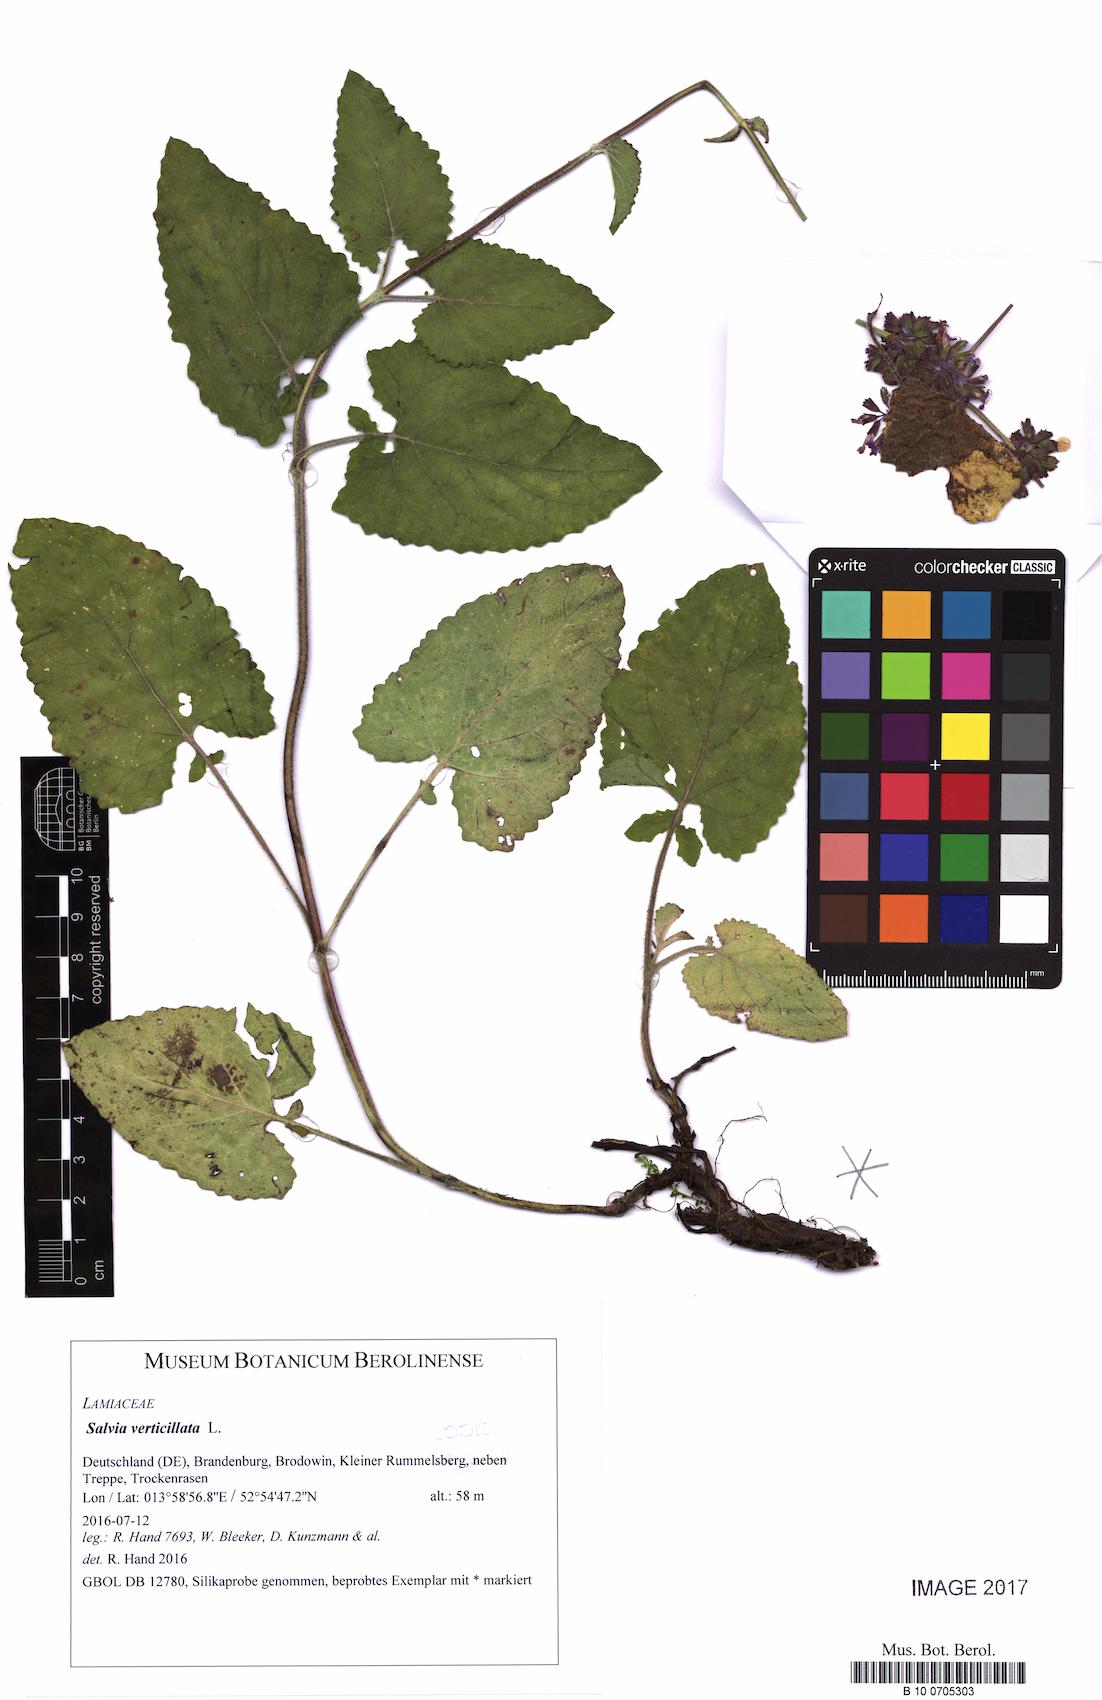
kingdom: Plantae
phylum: Tracheophyta
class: Magnoliopsida
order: Lamiales
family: Lamiaceae
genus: Salvia
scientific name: Salvia verticillata
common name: Whorled clary
